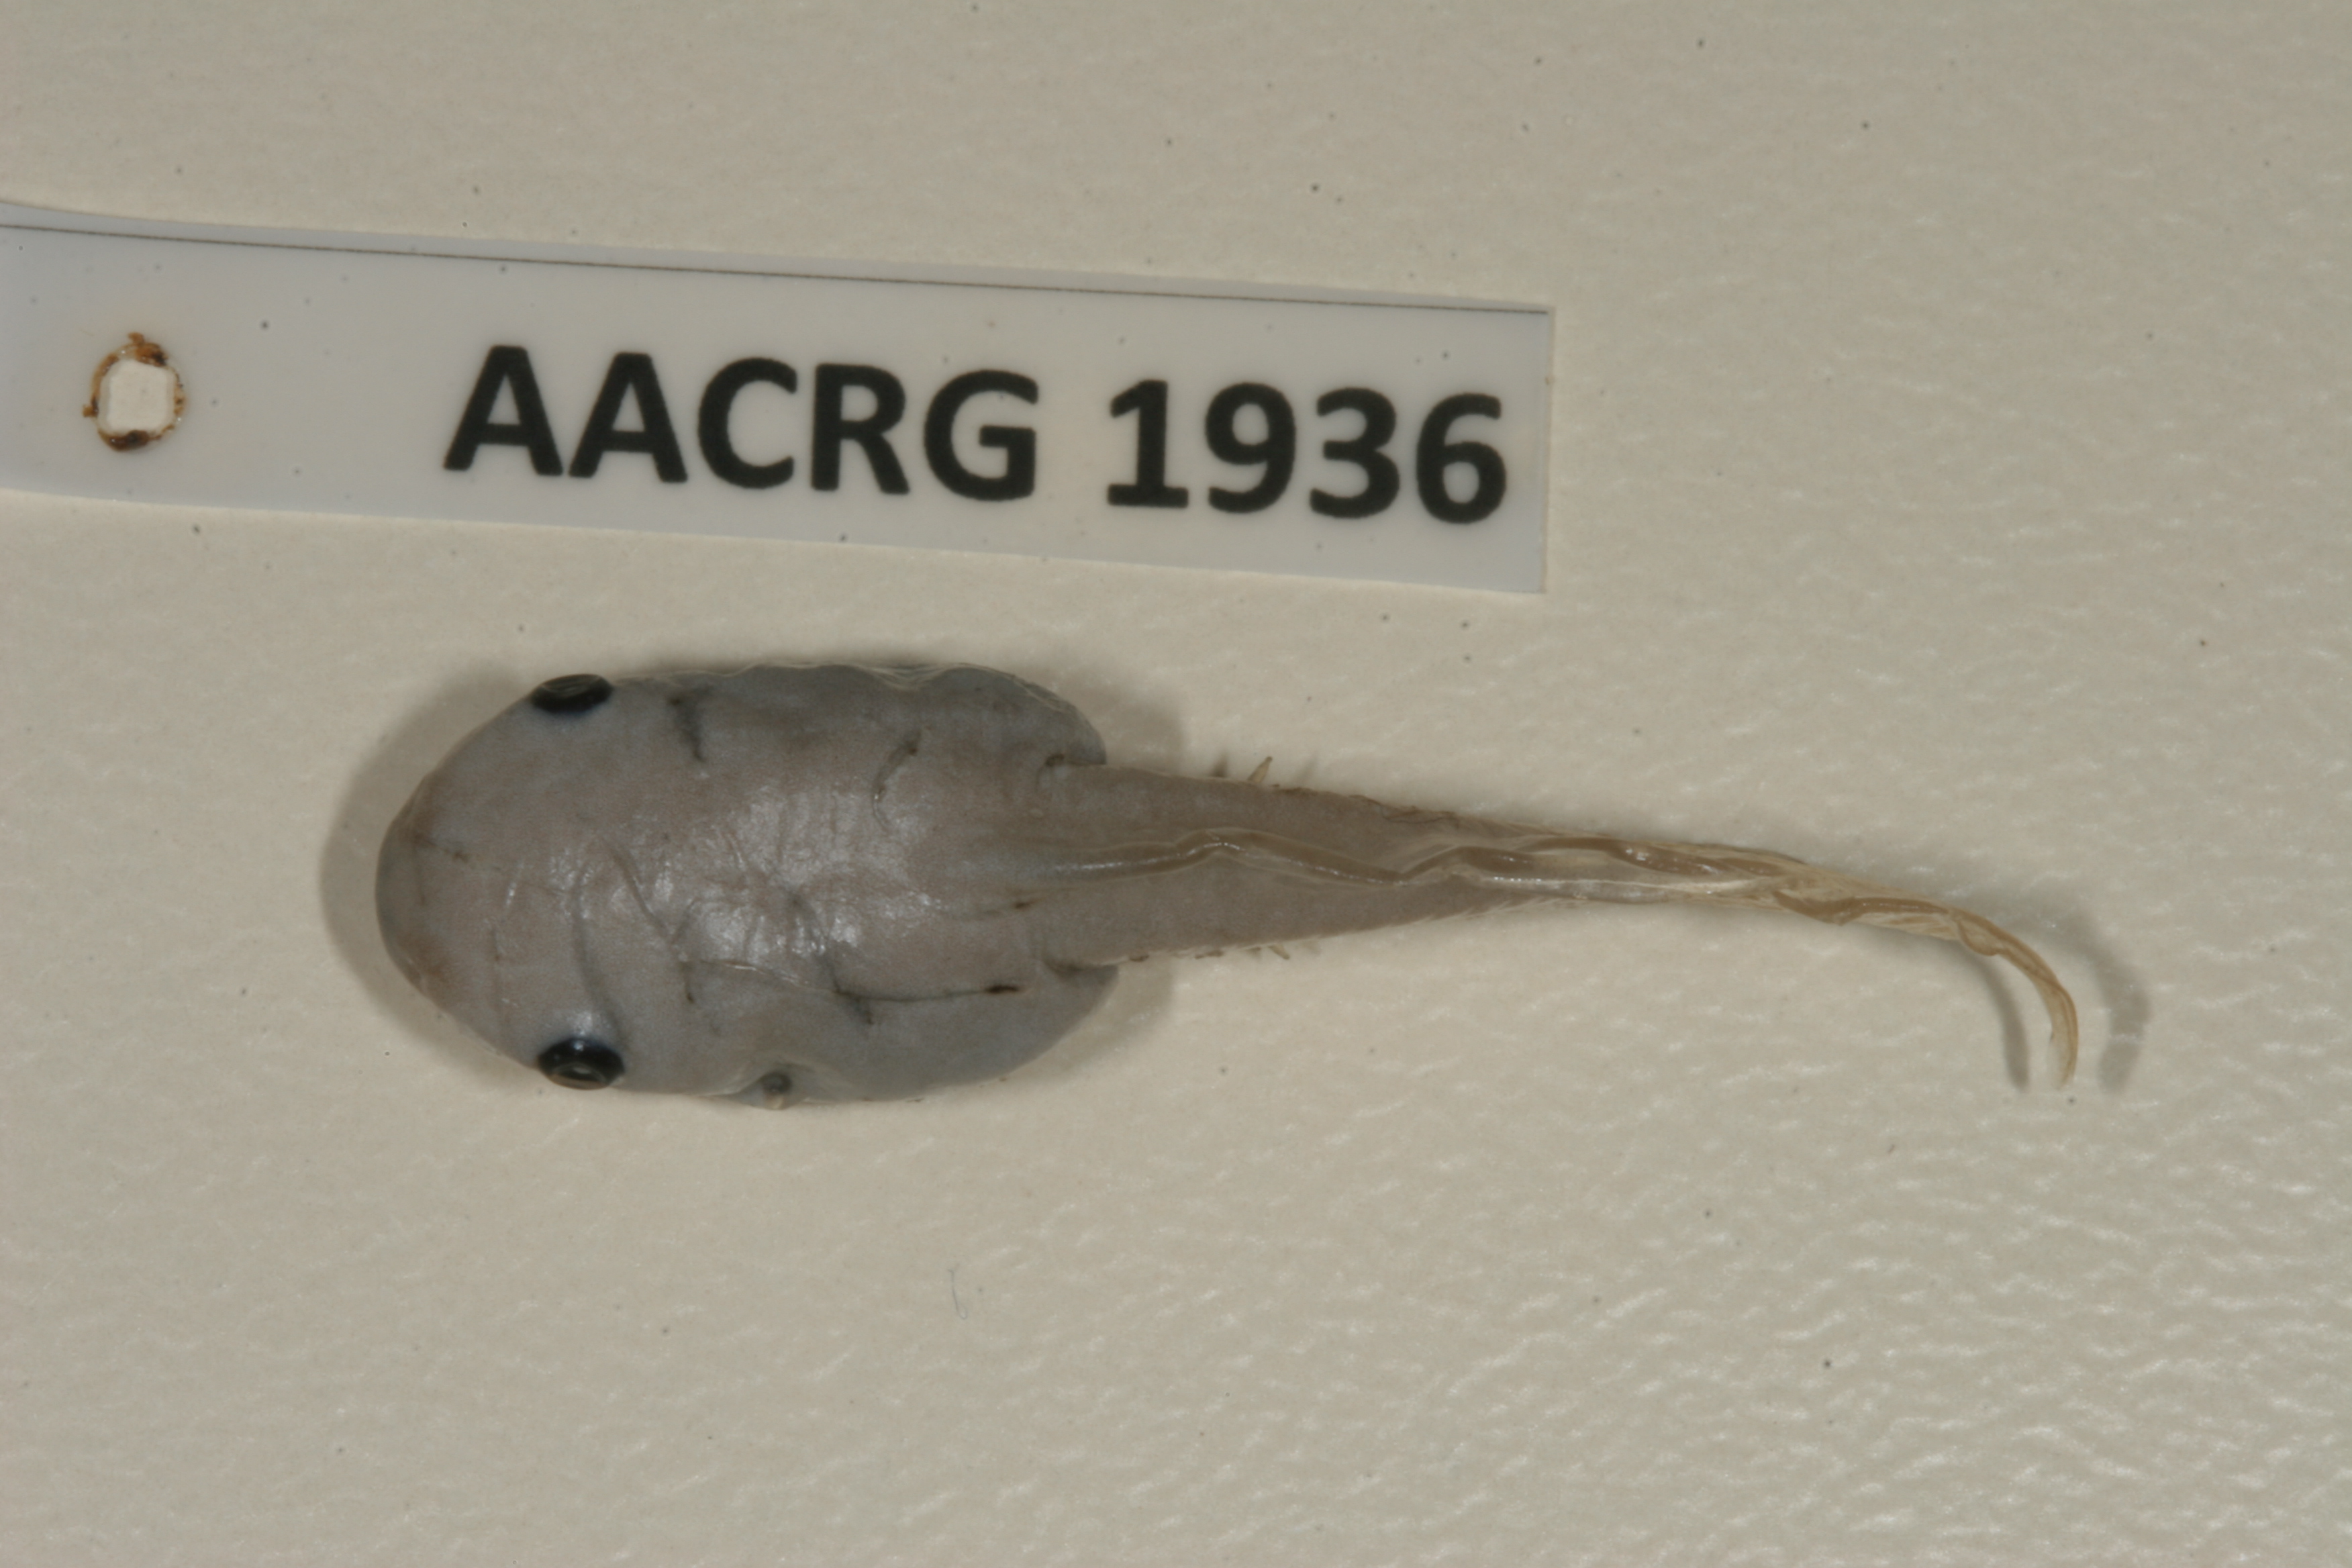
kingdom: Animalia
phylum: Chordata
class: Amphibia
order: Anura
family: Hemisotidae
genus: Hemisus
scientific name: Hemisus guineensis
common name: Guinea snout-burrower
